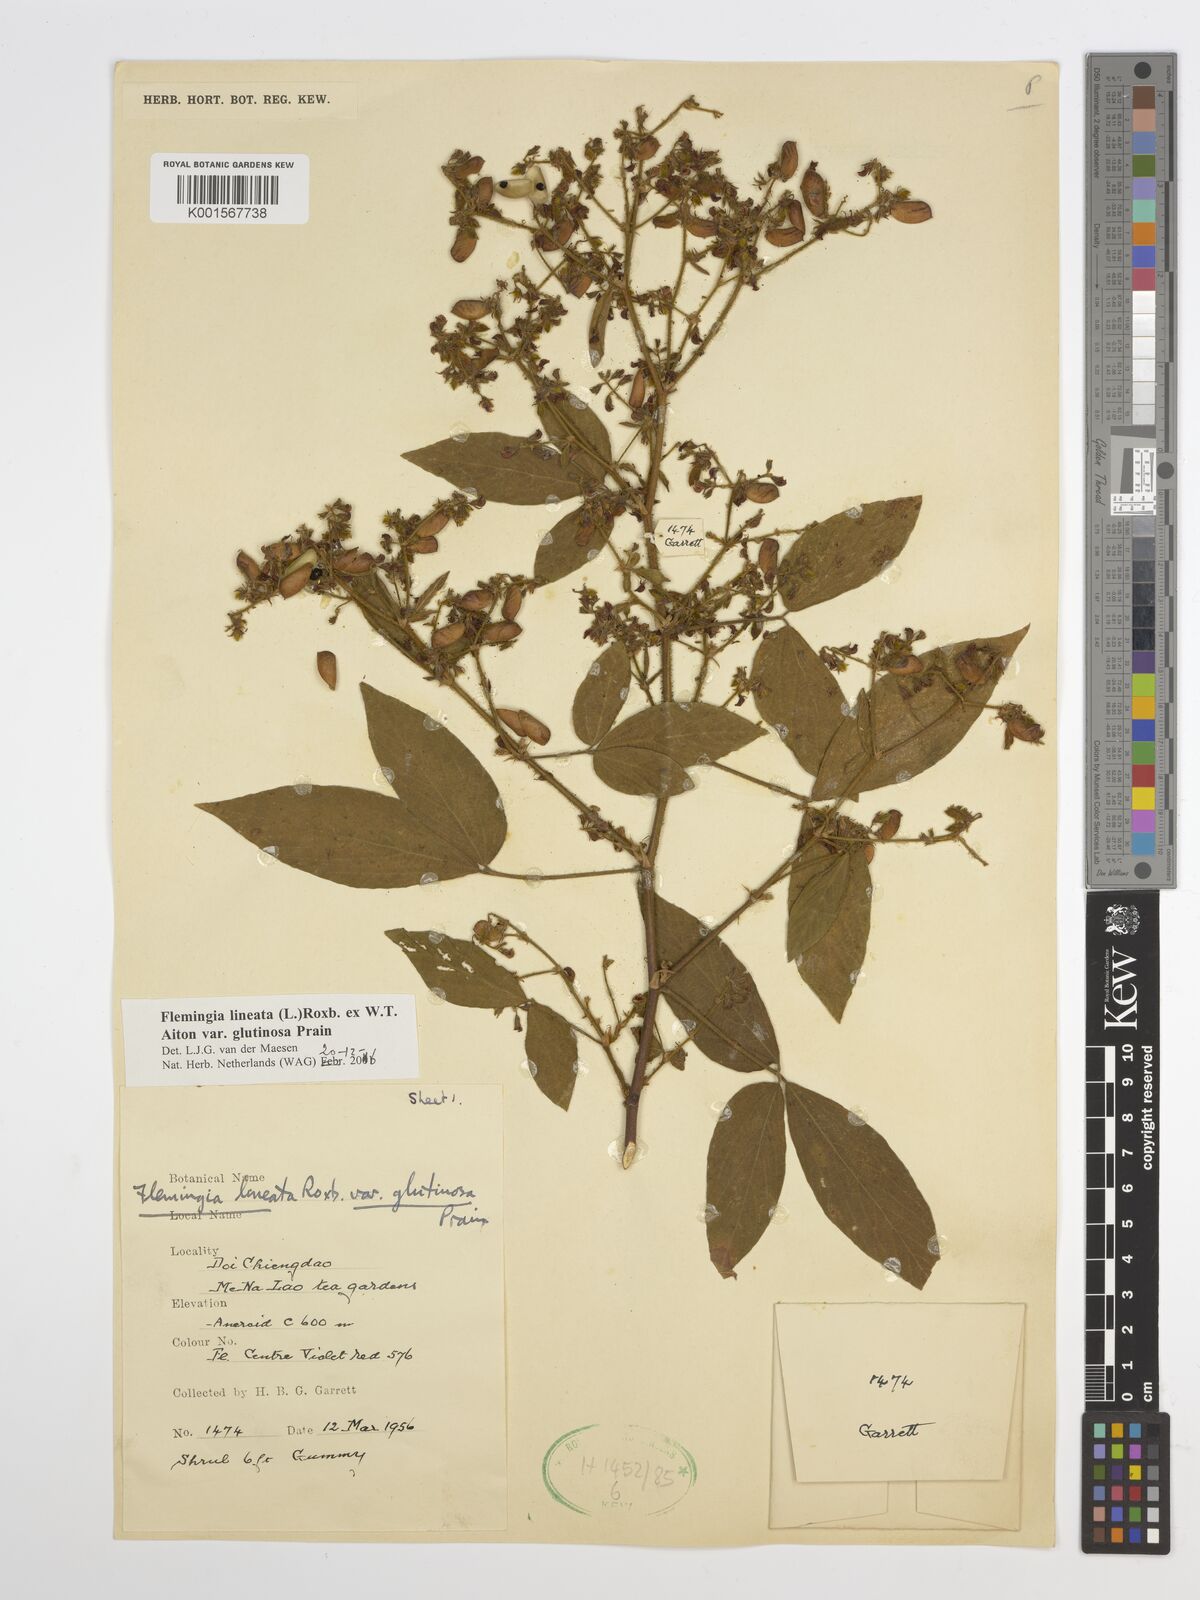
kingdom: Plantae
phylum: Tracheophyta
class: Magnoliopsida
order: Fabales
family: Fabaceae
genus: Flemingia
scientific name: Flemingia lineata
